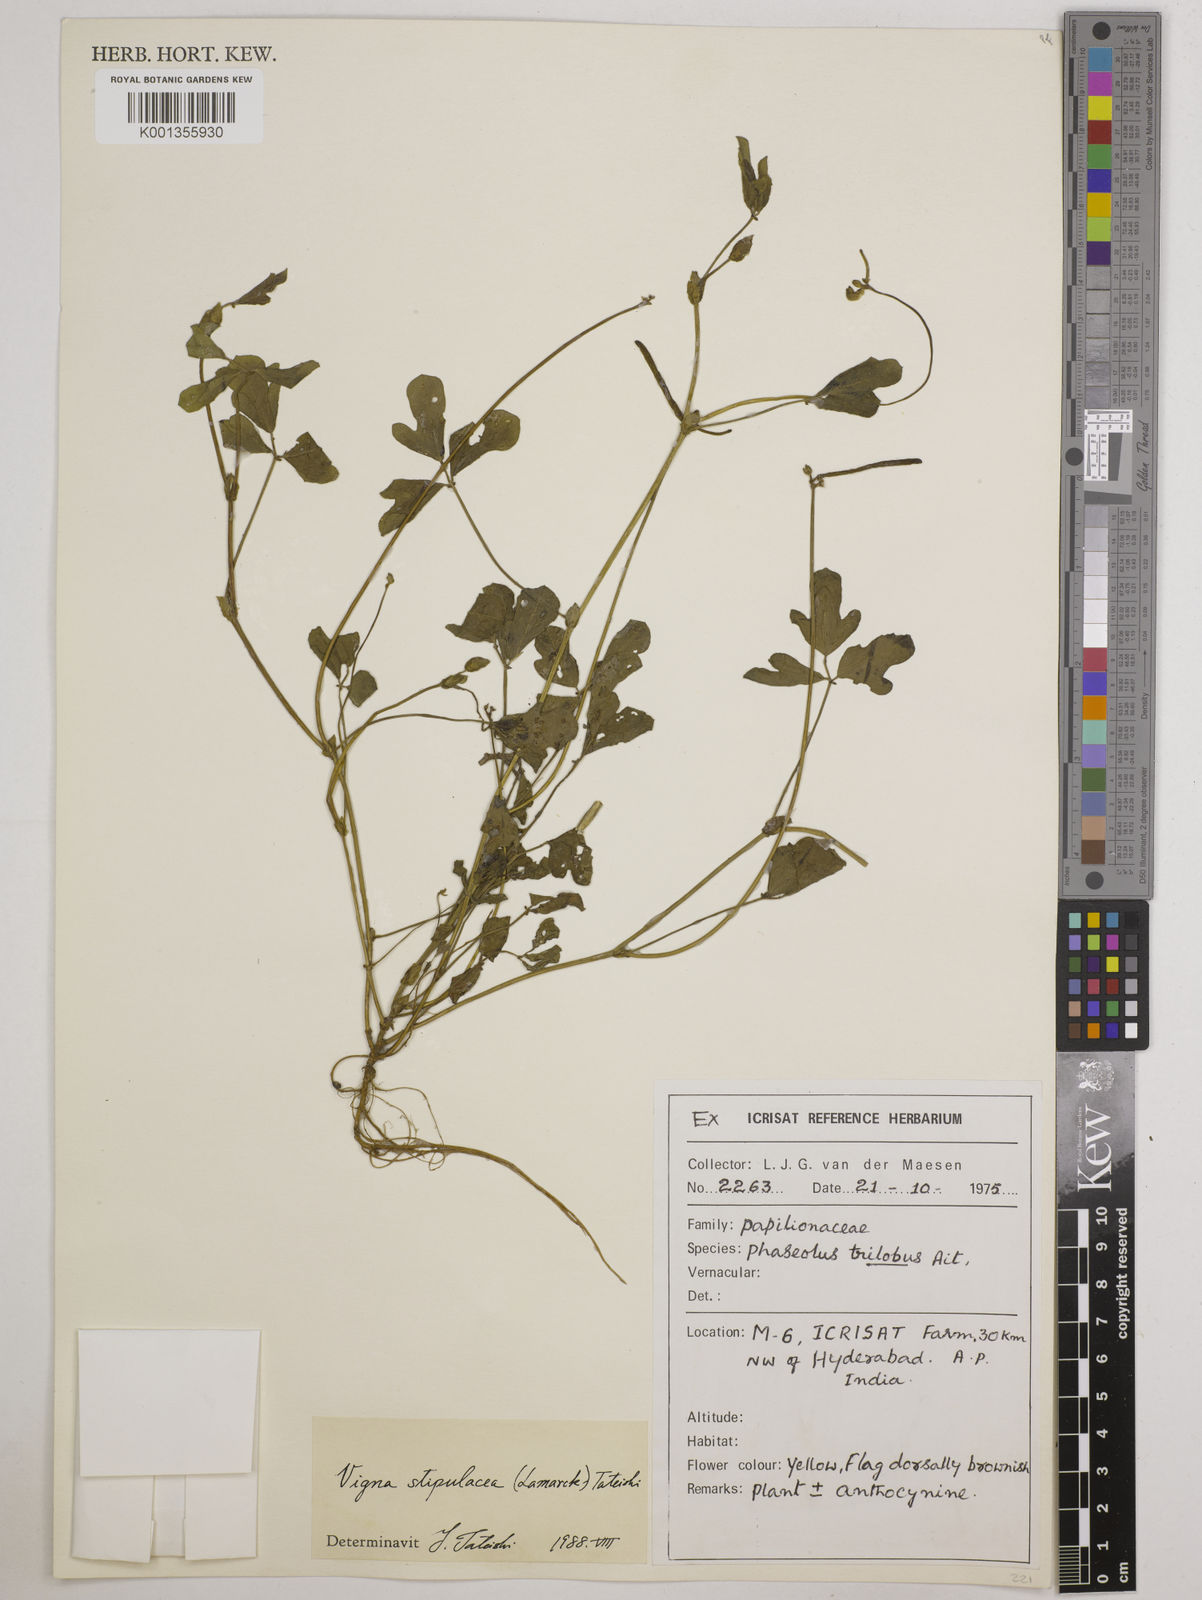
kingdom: Plantae
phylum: Tracheophyta
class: Magnoliopsida
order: Fabales
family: Fabaceae
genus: Pueraria
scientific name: Pueraria montana
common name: Kudzu
